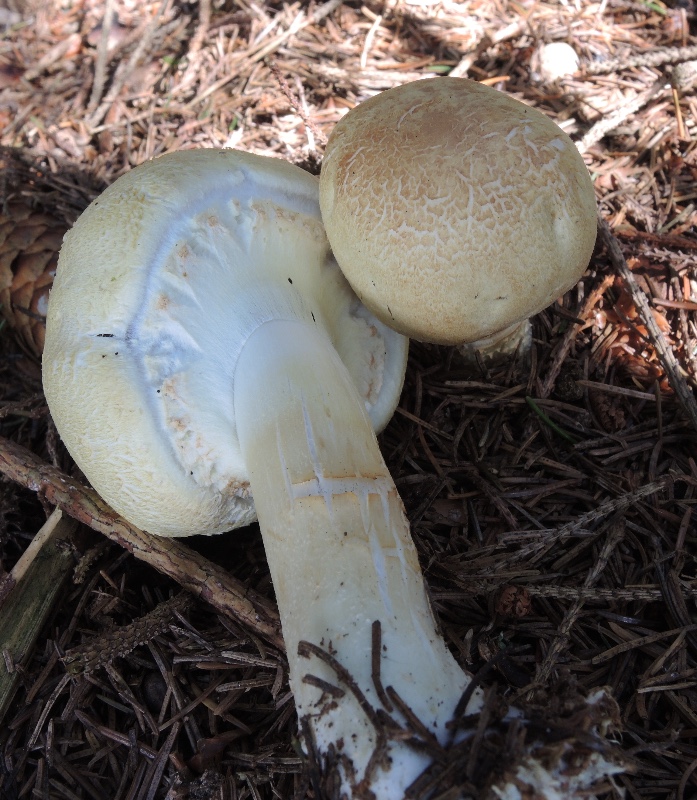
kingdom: Fungi
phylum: Basidiomycota
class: Agaricomycetes
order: Agaricales
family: Agaricaceae
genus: Agaricus
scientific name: Agaricus sylvicola
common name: gulhvid champignon
